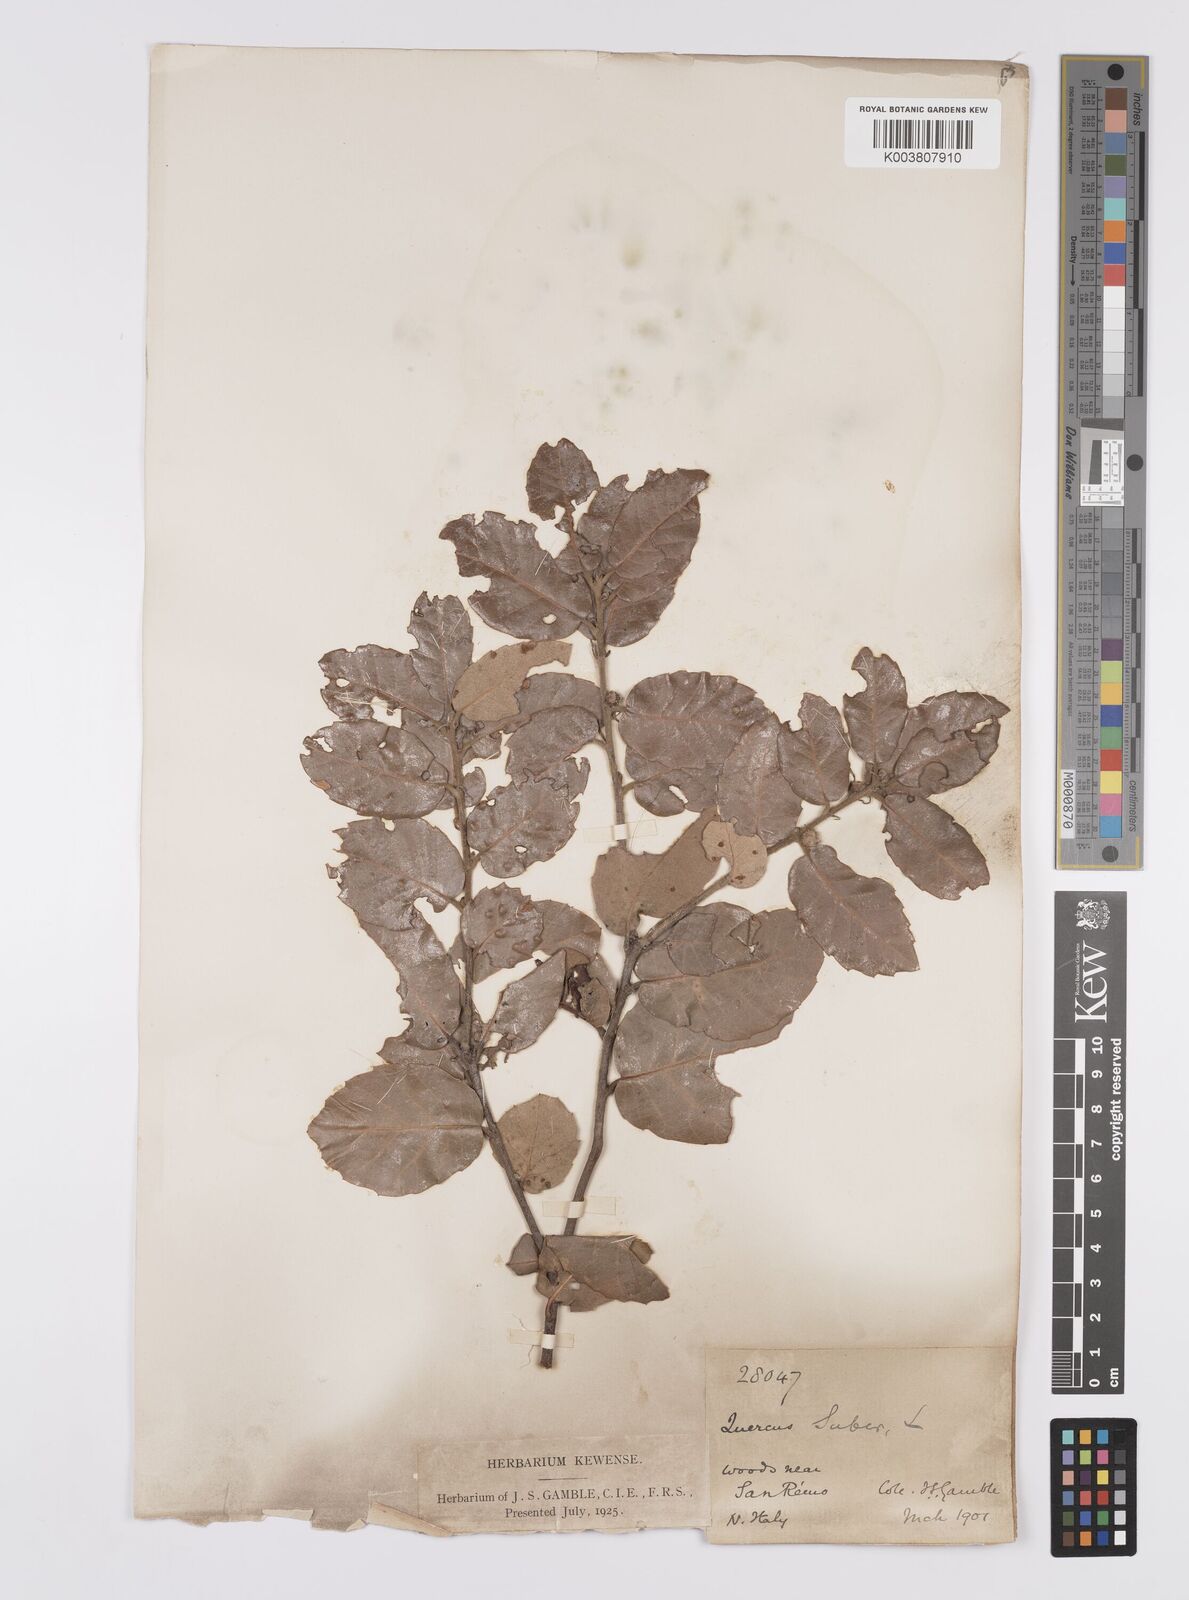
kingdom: Plantae
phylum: Tracheophyta
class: Magnoliopsida
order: Fagales
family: Fagaceae
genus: Quercus
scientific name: Quercus suber
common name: Cork oak
